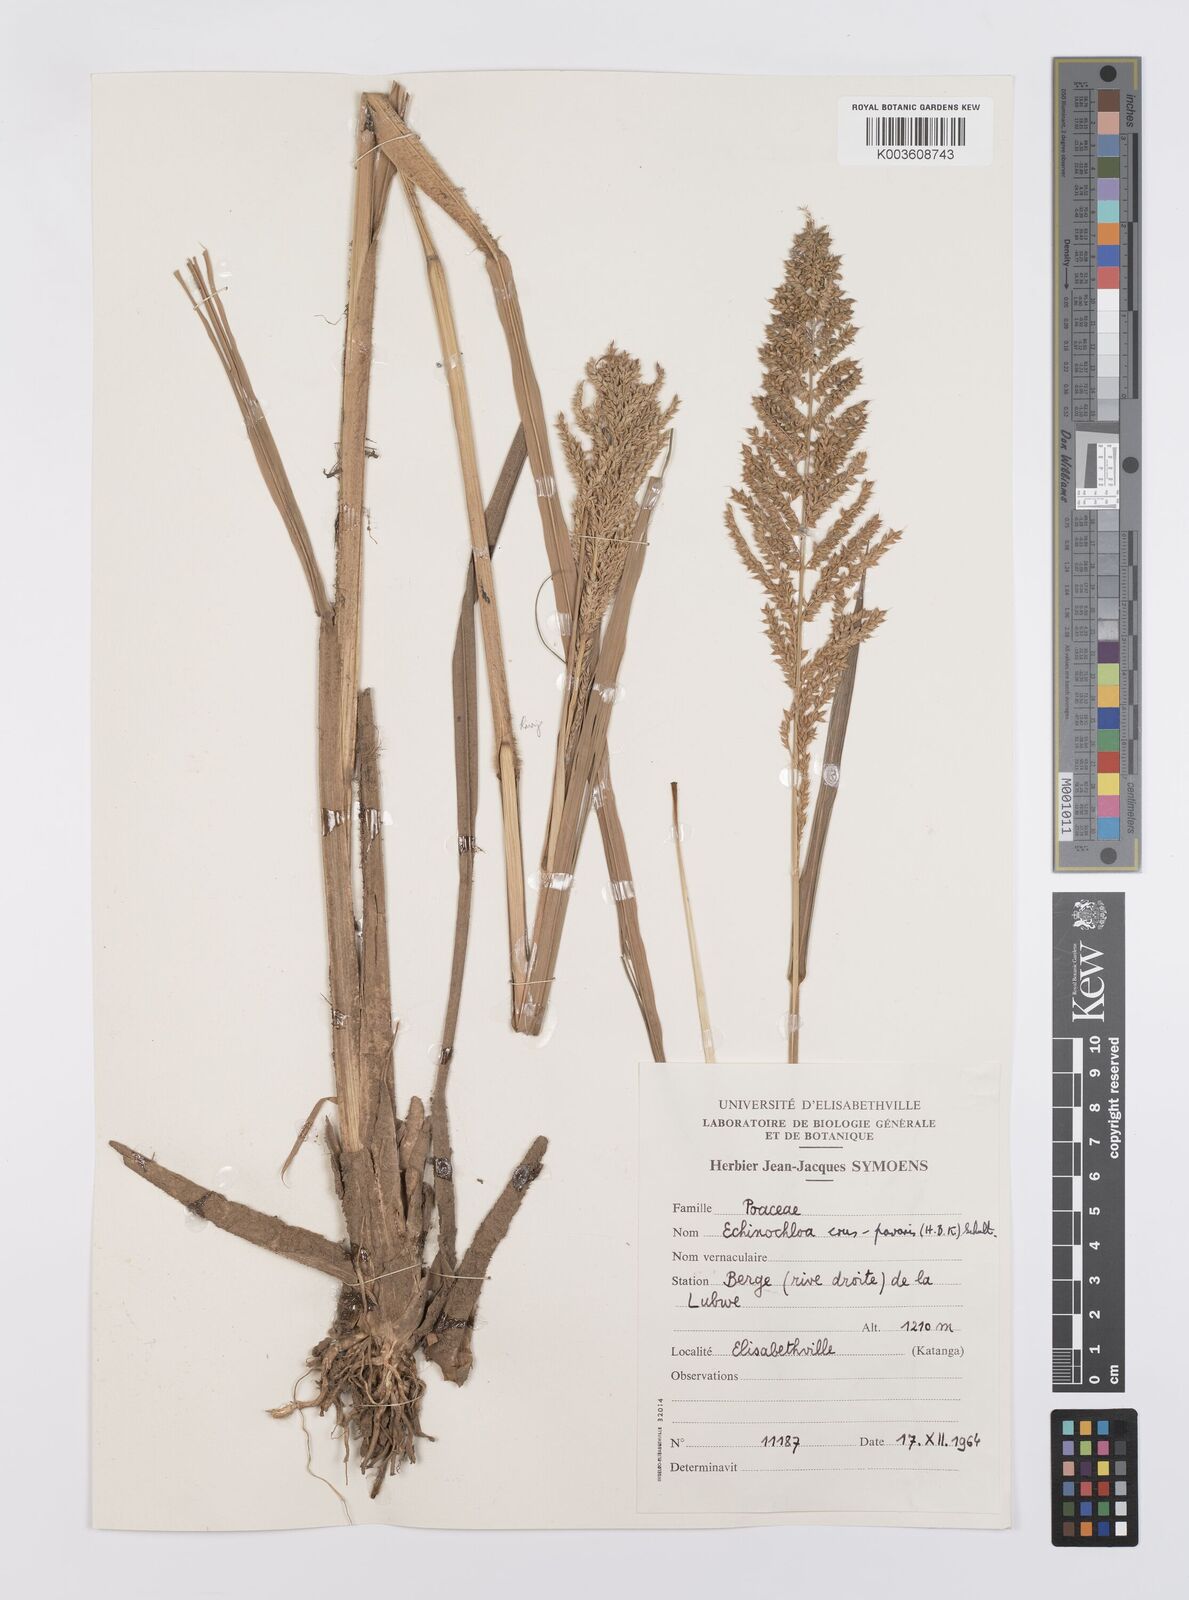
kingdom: Plantae
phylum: Tracheophyta
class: Liliopsida
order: Poales
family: Poaceae
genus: Echinochloa
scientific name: Echinochloa pyramidalis
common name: Antelope grass
